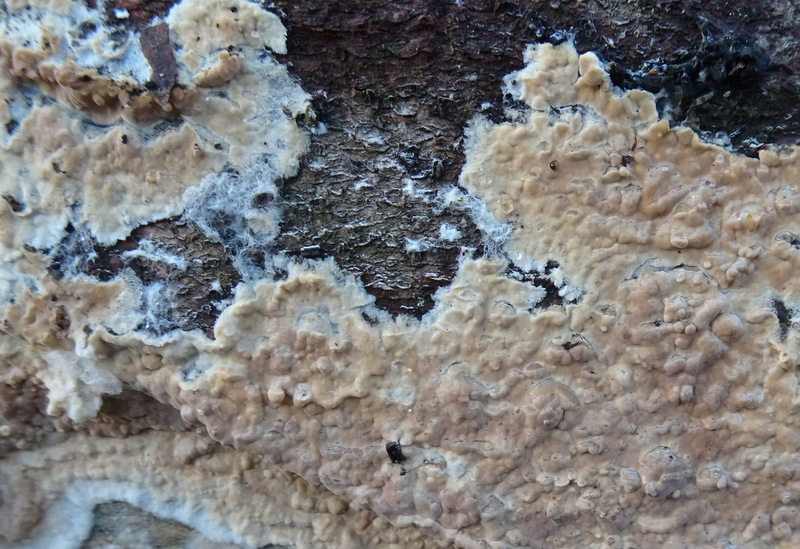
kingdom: Fungi
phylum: Basidiomycota
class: Agaricomycetes
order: Agaricales
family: Physalacriaceae
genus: Cylindrobasidium
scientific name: Cylindrobasidium evolvens
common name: sprækkehinde
